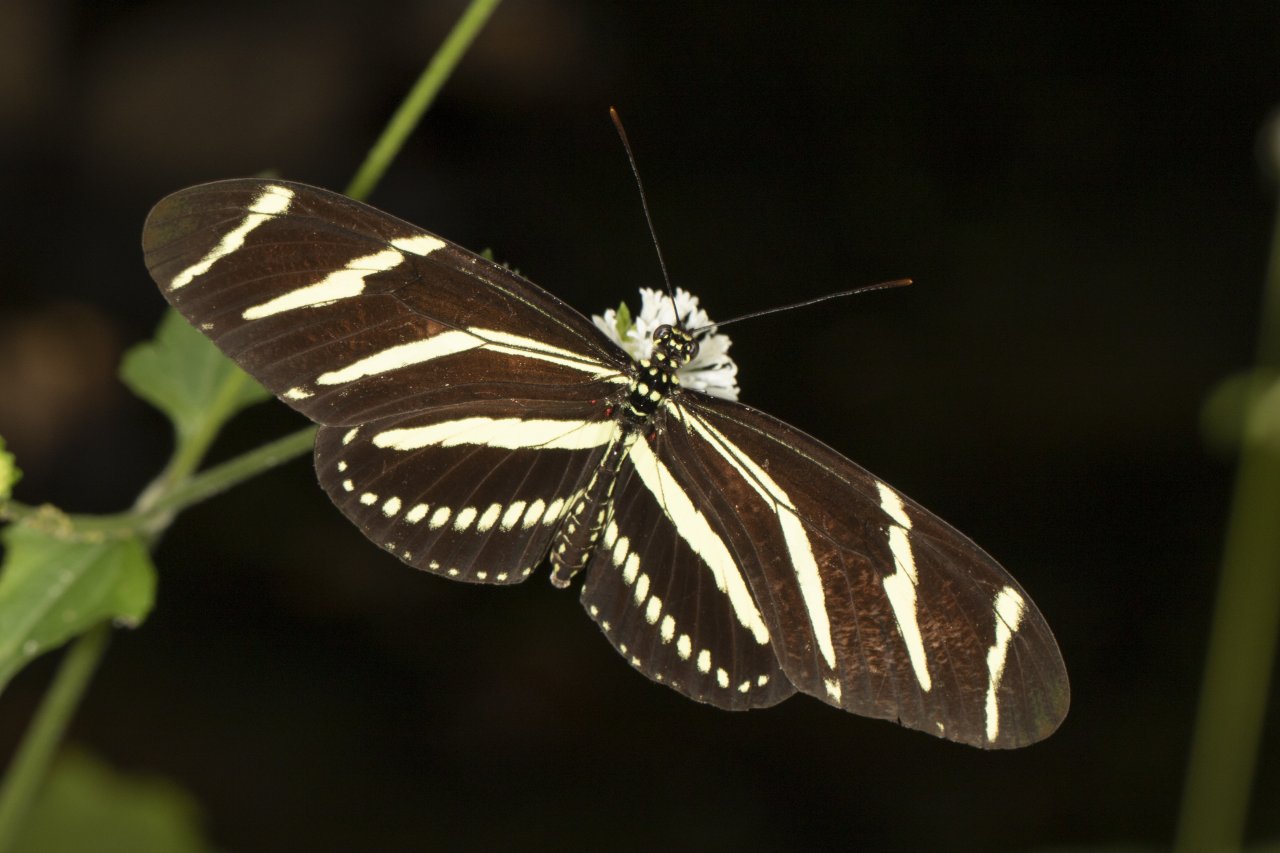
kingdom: Animalia
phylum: Arthropoda
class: Insecta
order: Lepidoptera
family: Nymphalidae
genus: Heliconius
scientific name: Heliconius charithonia
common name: Zebra Longwing
